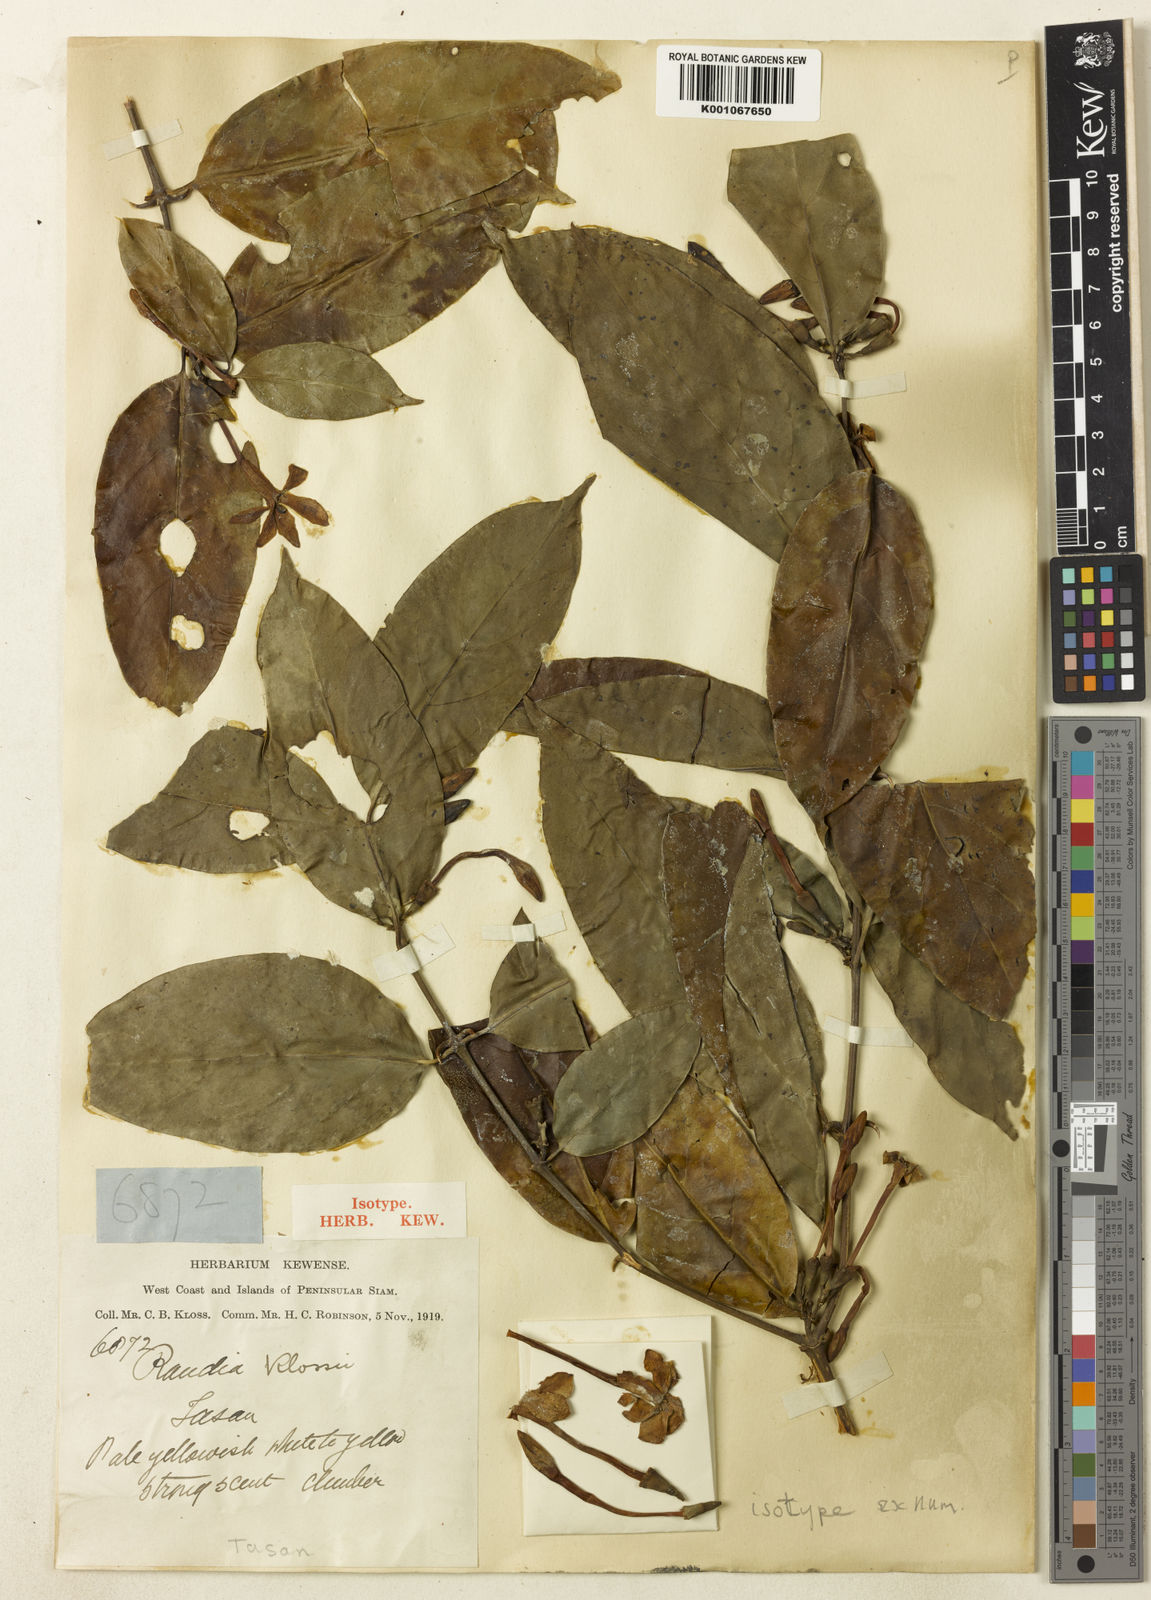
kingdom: Plantae
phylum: Tracheophyta
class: Magnoliopsida
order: Gentianales
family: Rubiaceae
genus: Oxyceros
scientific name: Oxyceros kunstleri
